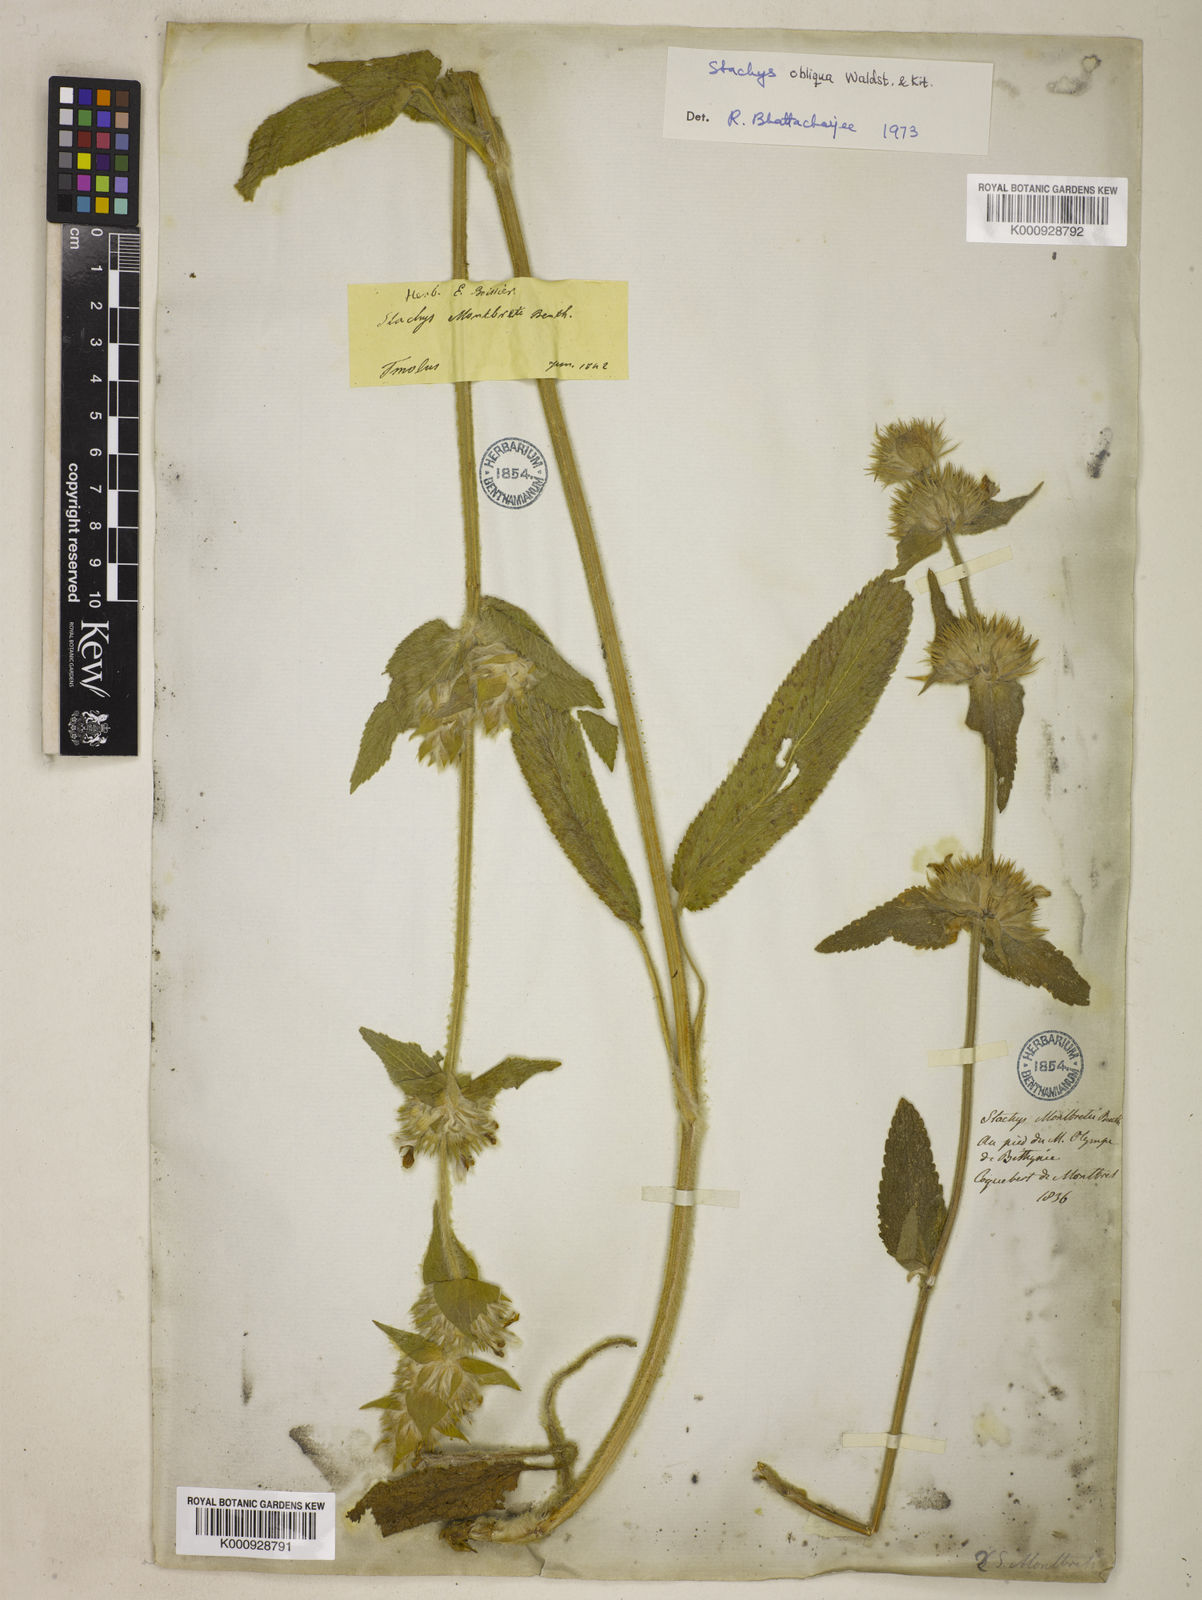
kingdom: Plantae
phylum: Tracheophyta
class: Magnoliopsida
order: Lamiales
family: Lamiaceae
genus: Stachys
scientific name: Stachys alpina
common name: Limestone woundwort
